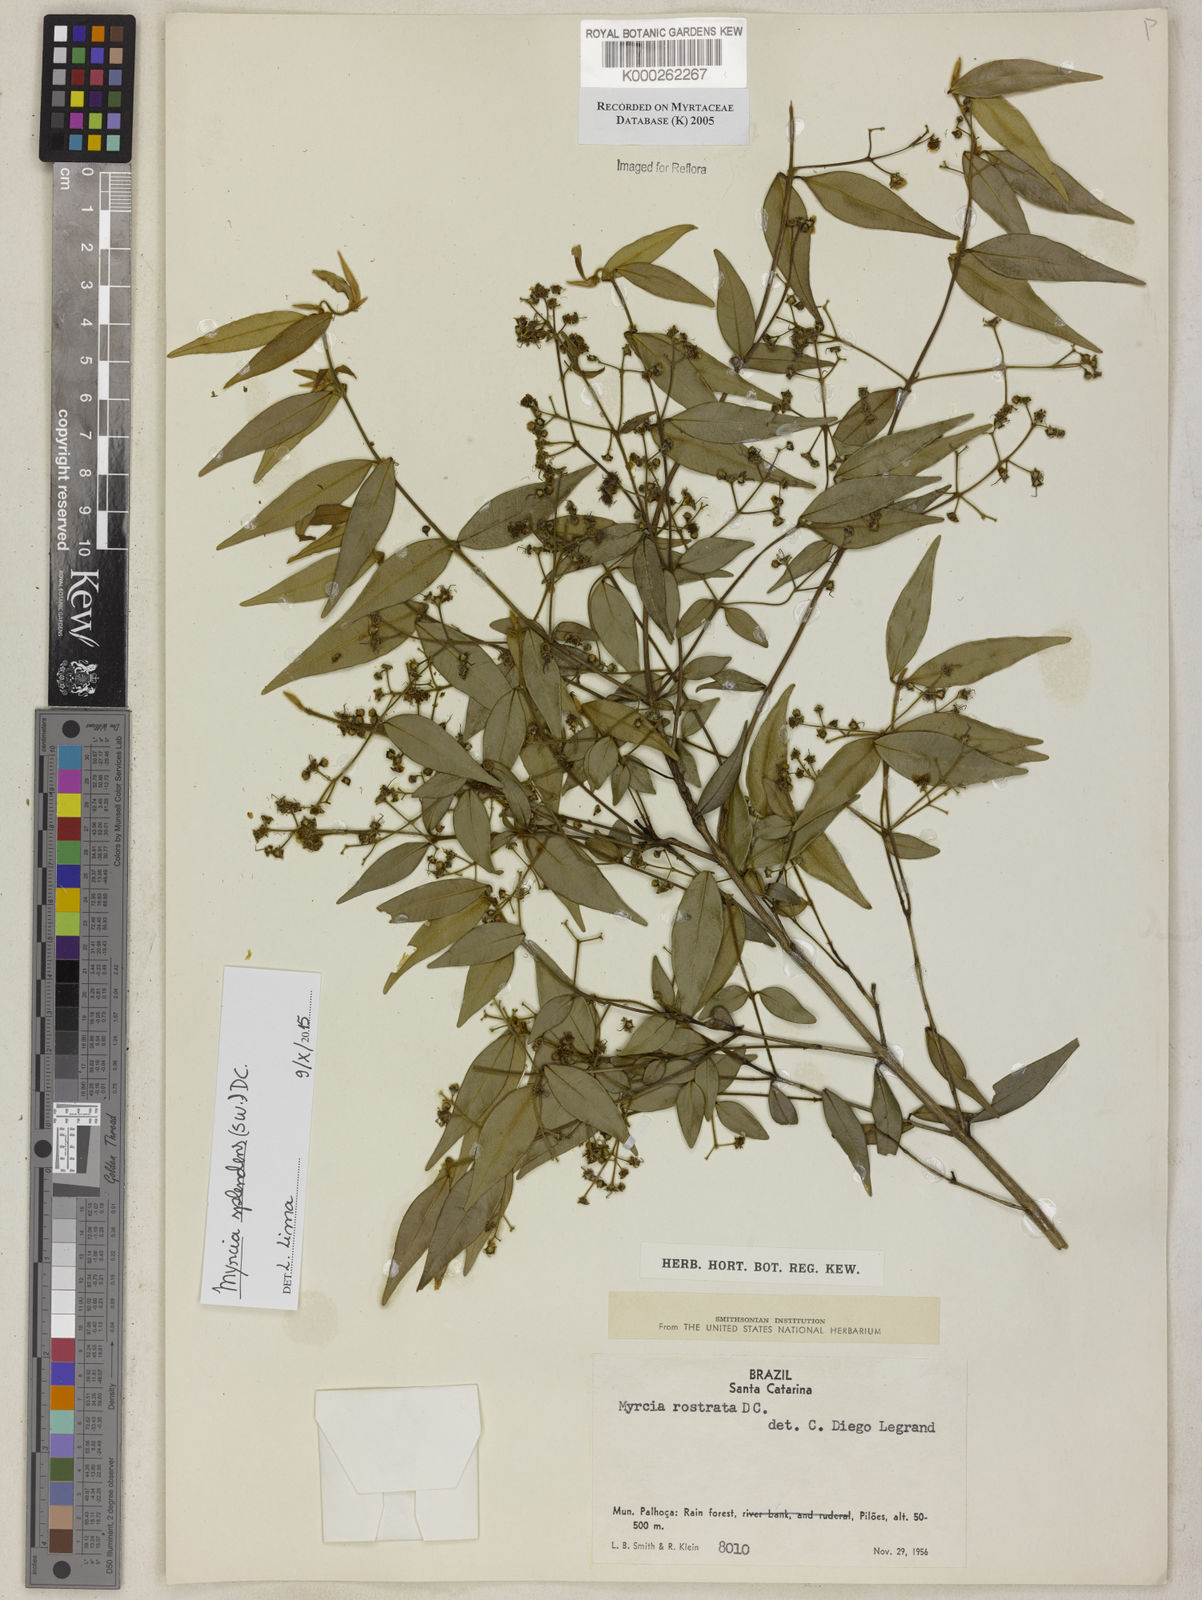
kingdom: Plantae
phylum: Tracheophyta
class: Magnoliopsida
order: Myrtales
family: Myrtaceae
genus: Myrcia
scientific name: Myrcia splendens
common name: Surinam cherry
